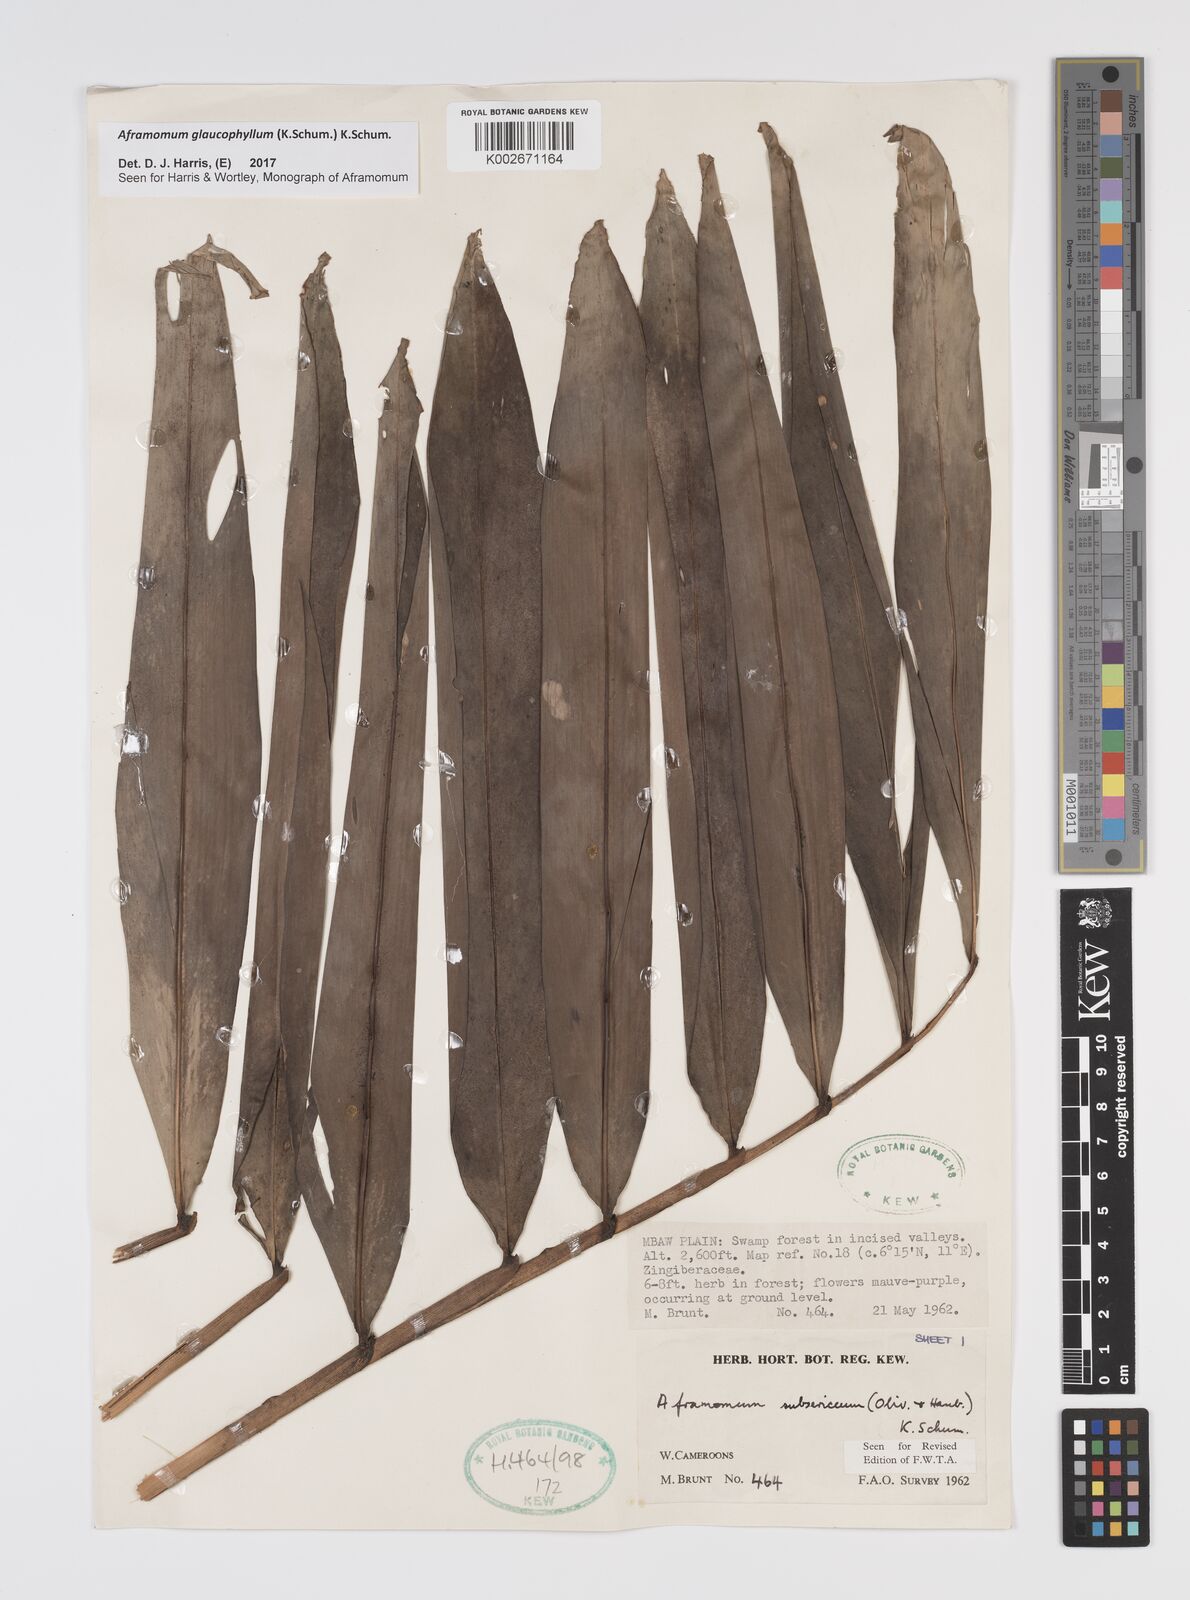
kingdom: Plantae
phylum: Tracheophyta
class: Liliopsida
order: Zingiberales
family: Zingiberaceae
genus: Aframomum
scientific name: Aframomum glaucophyllum
